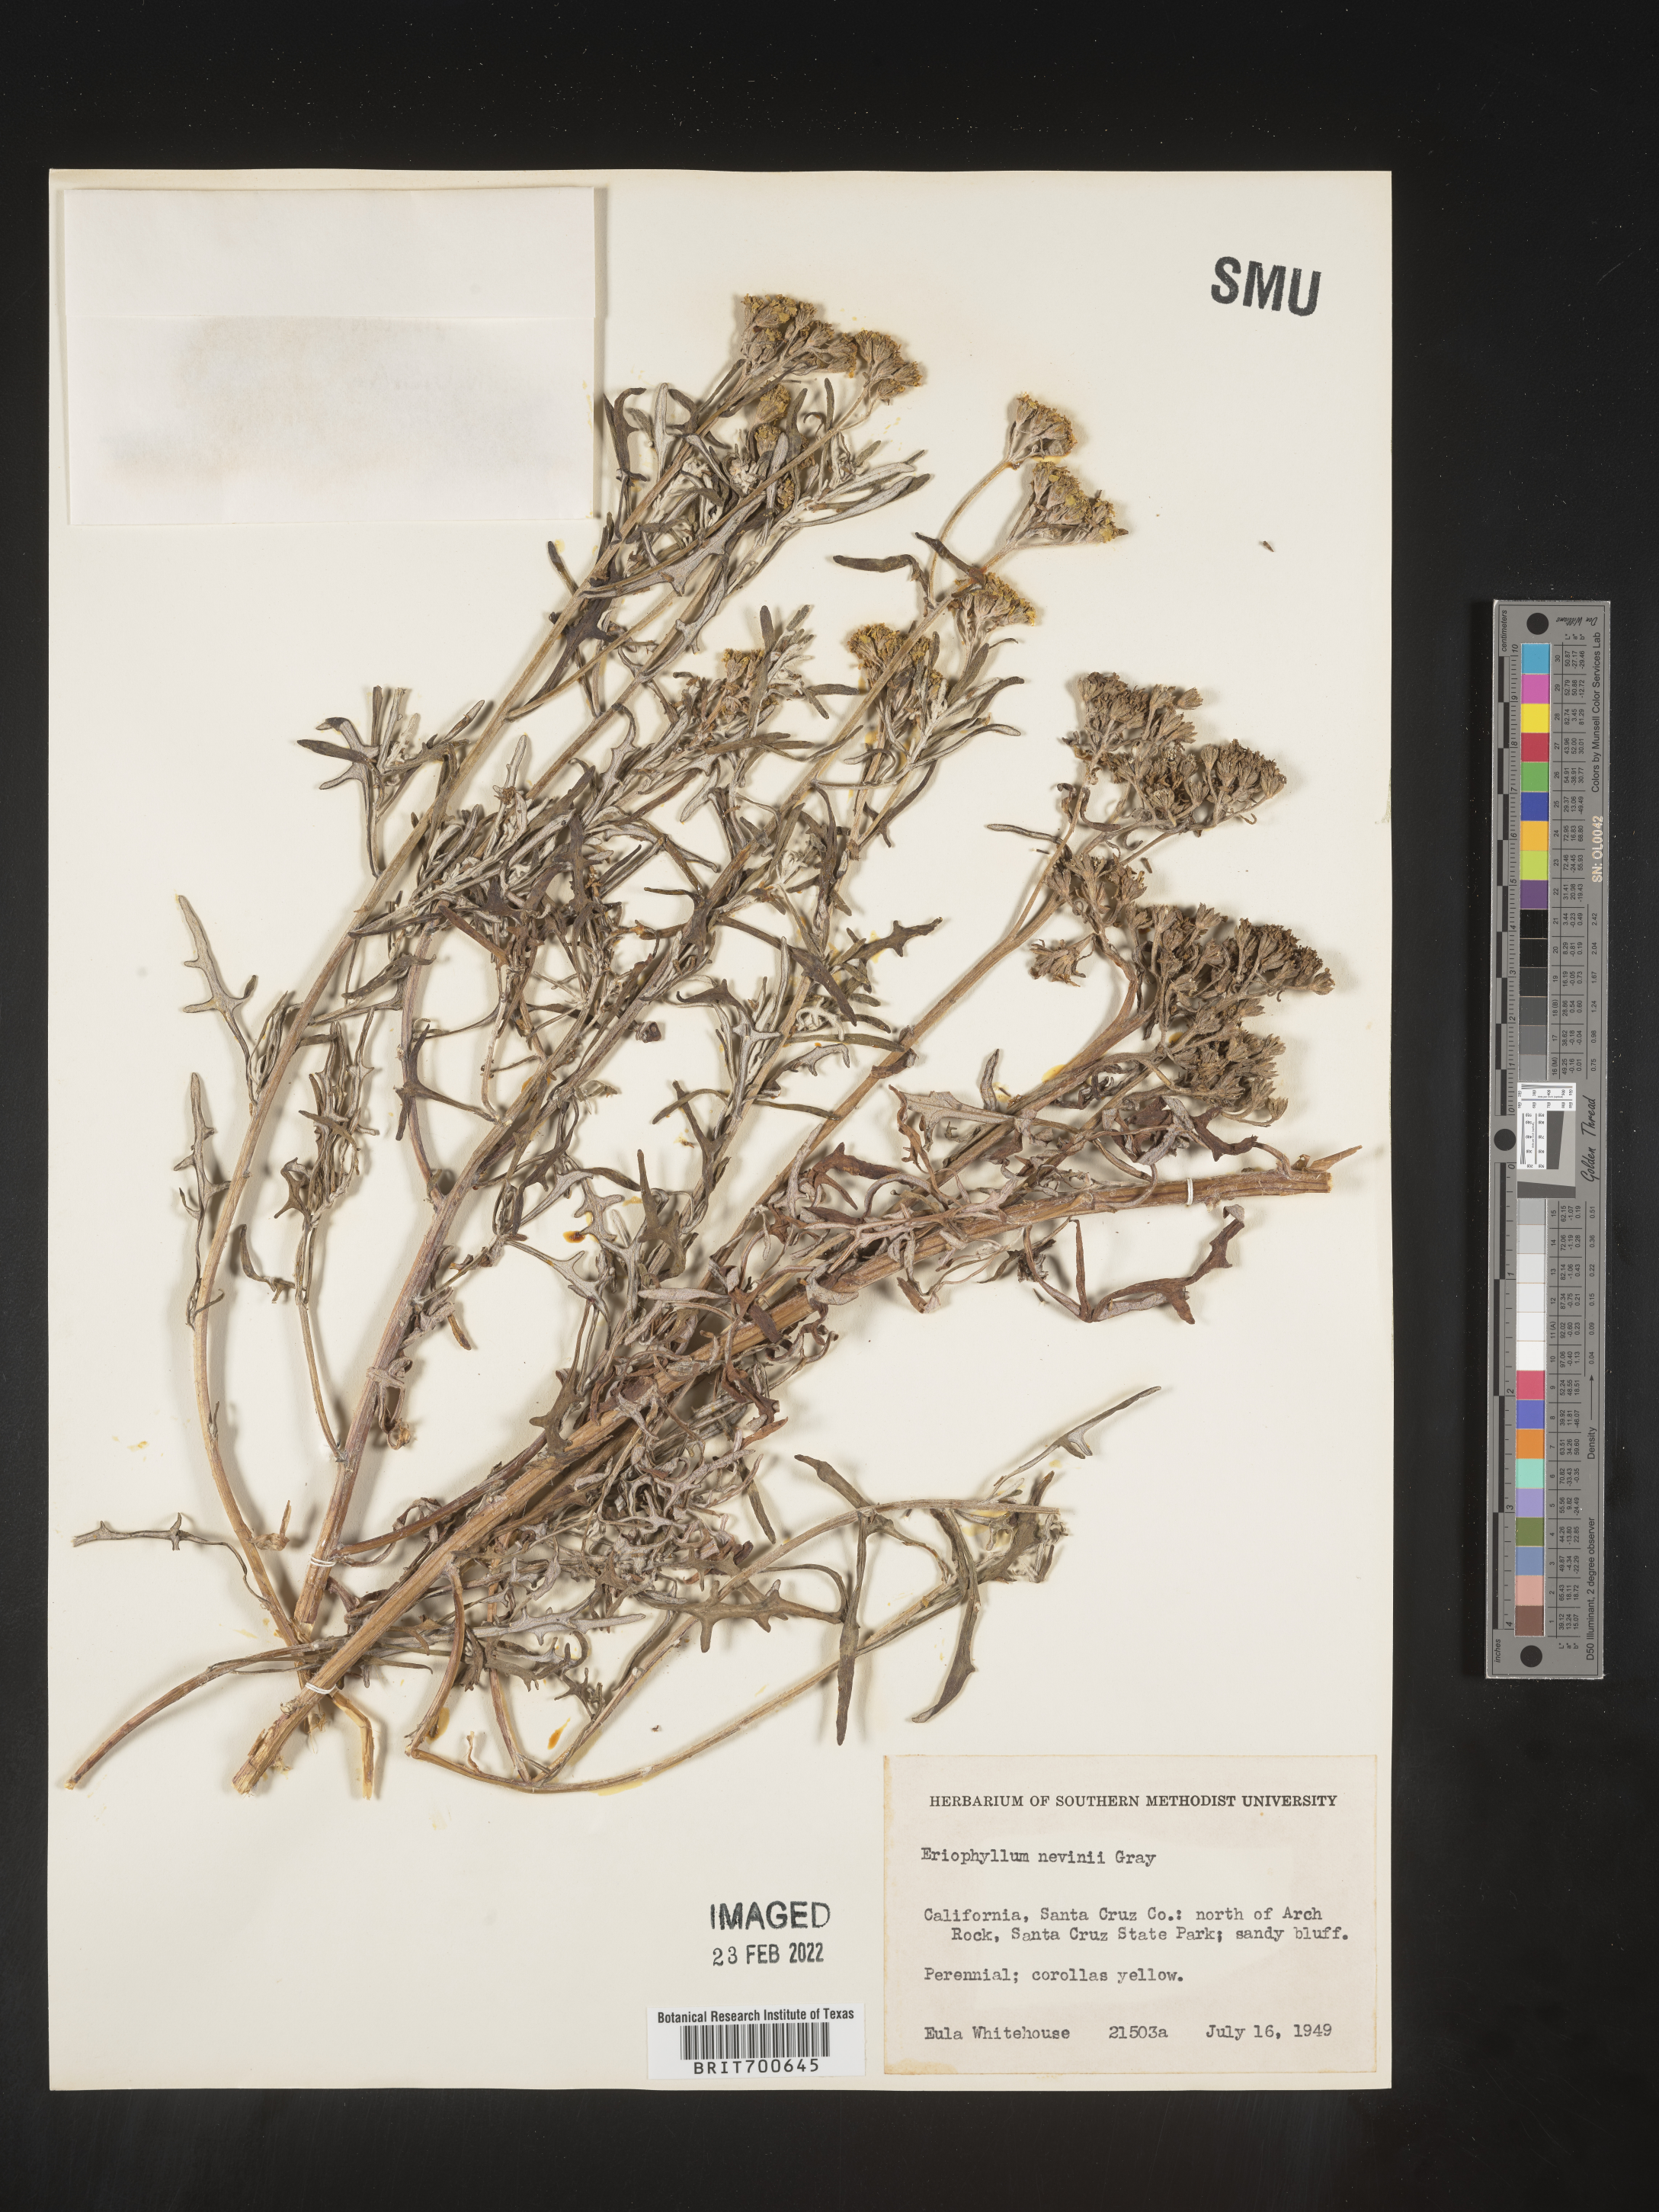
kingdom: Plantae
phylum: Tracheophyta
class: Magnoliopsida
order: Asterales
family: Asteraceae
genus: Constancea
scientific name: Constancea nevinii
